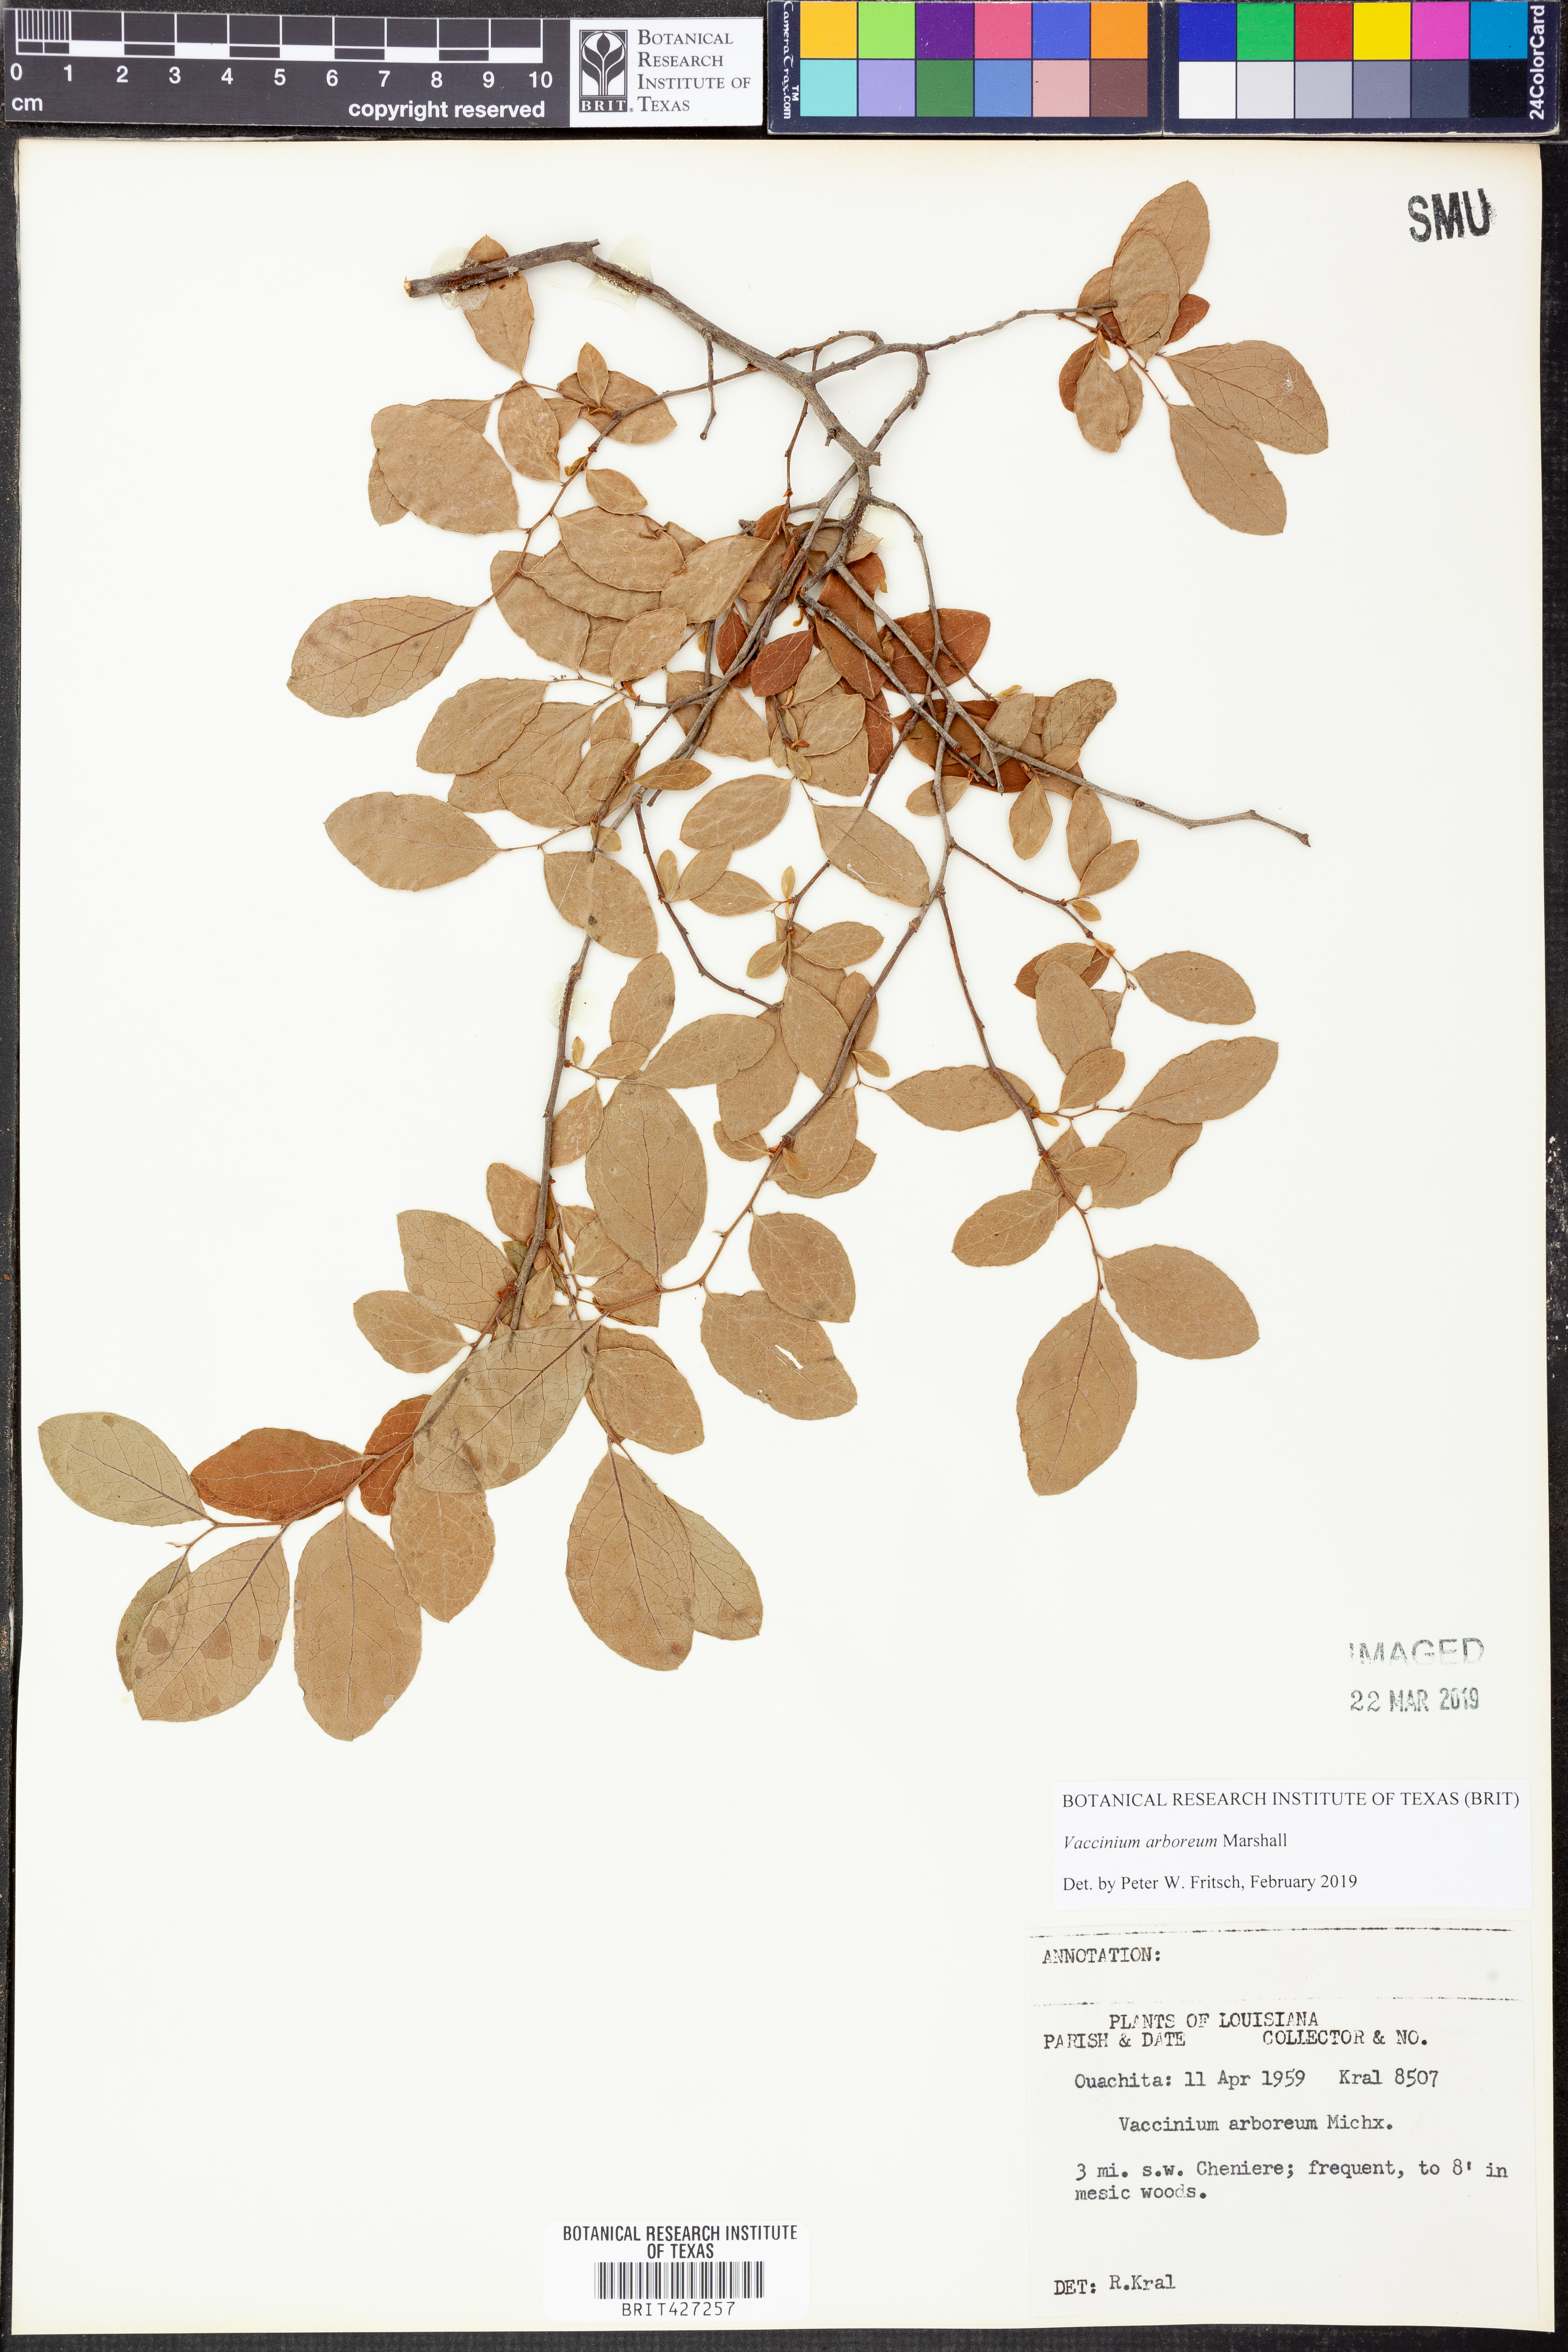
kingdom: Plantae
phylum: Tracheophyta
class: Magnoliopsida
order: Ericales
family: Ericaceae
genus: Vaccinium
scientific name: Vaccinium arboreum
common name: Farkleberry
